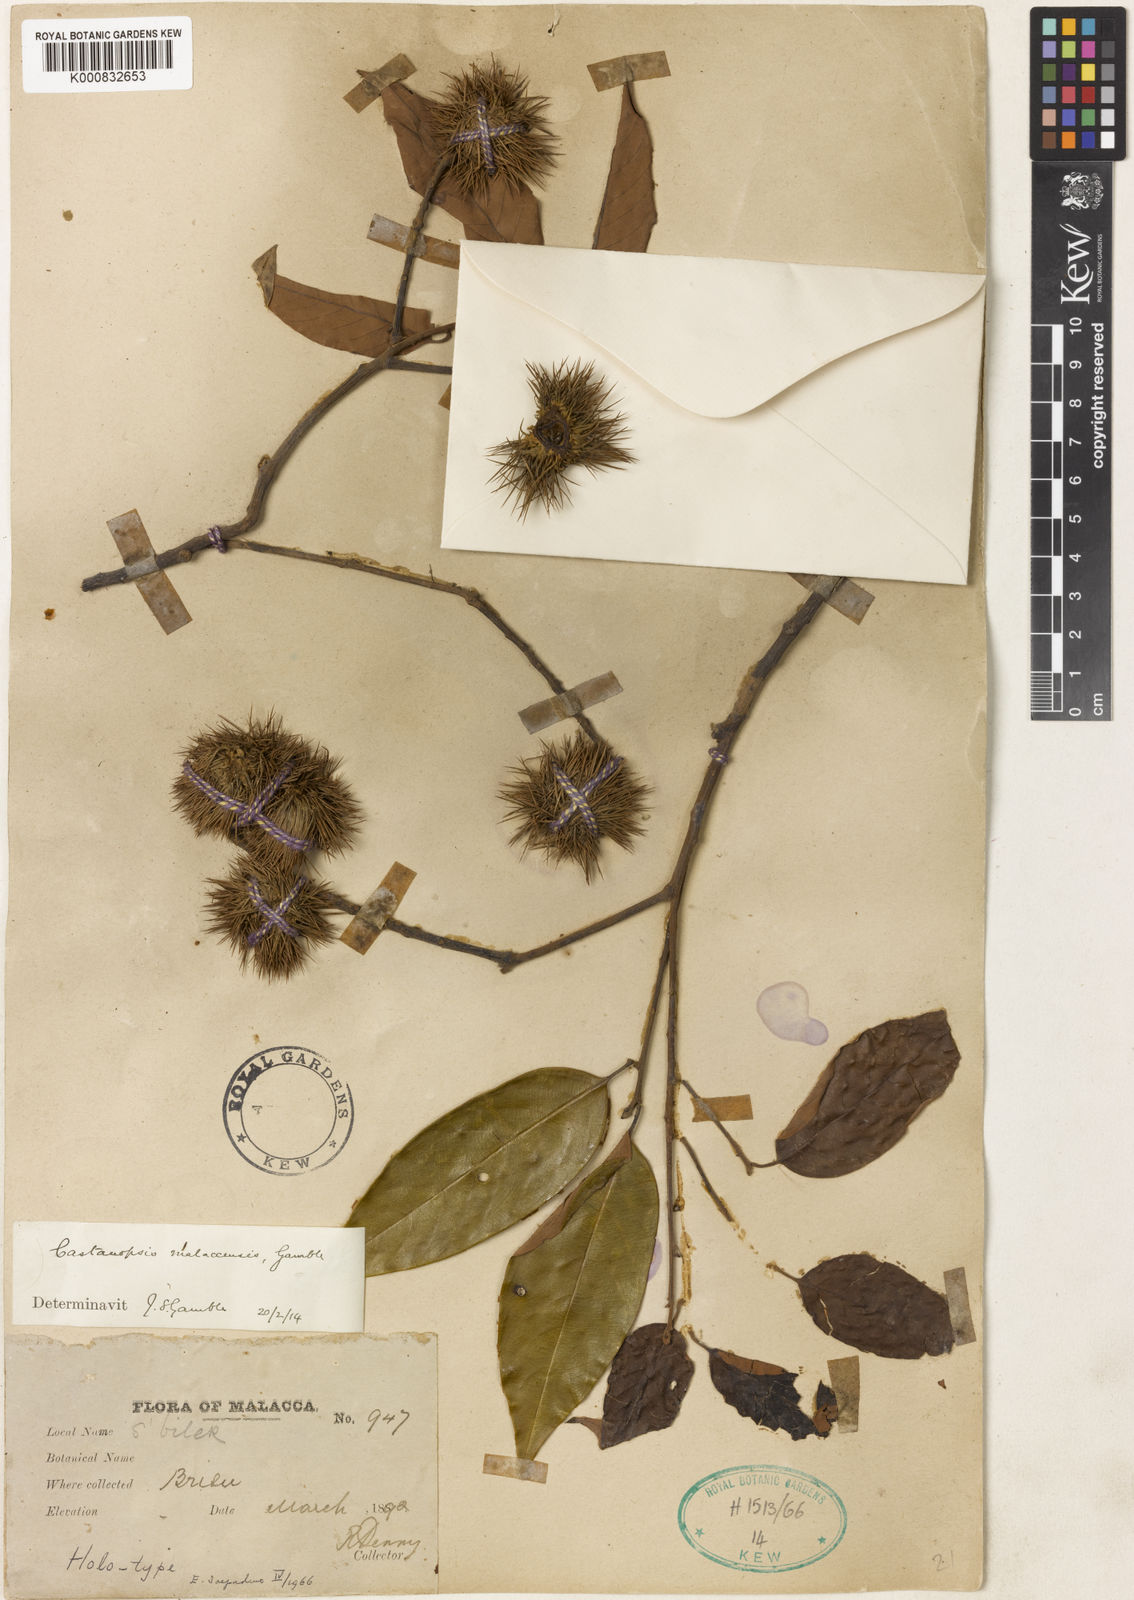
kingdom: Plantae
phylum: Tracheophyta
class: Magnoliopsida
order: Fagales
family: Fagaceae
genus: Castanopsis
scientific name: Castanopsis malaccensis
